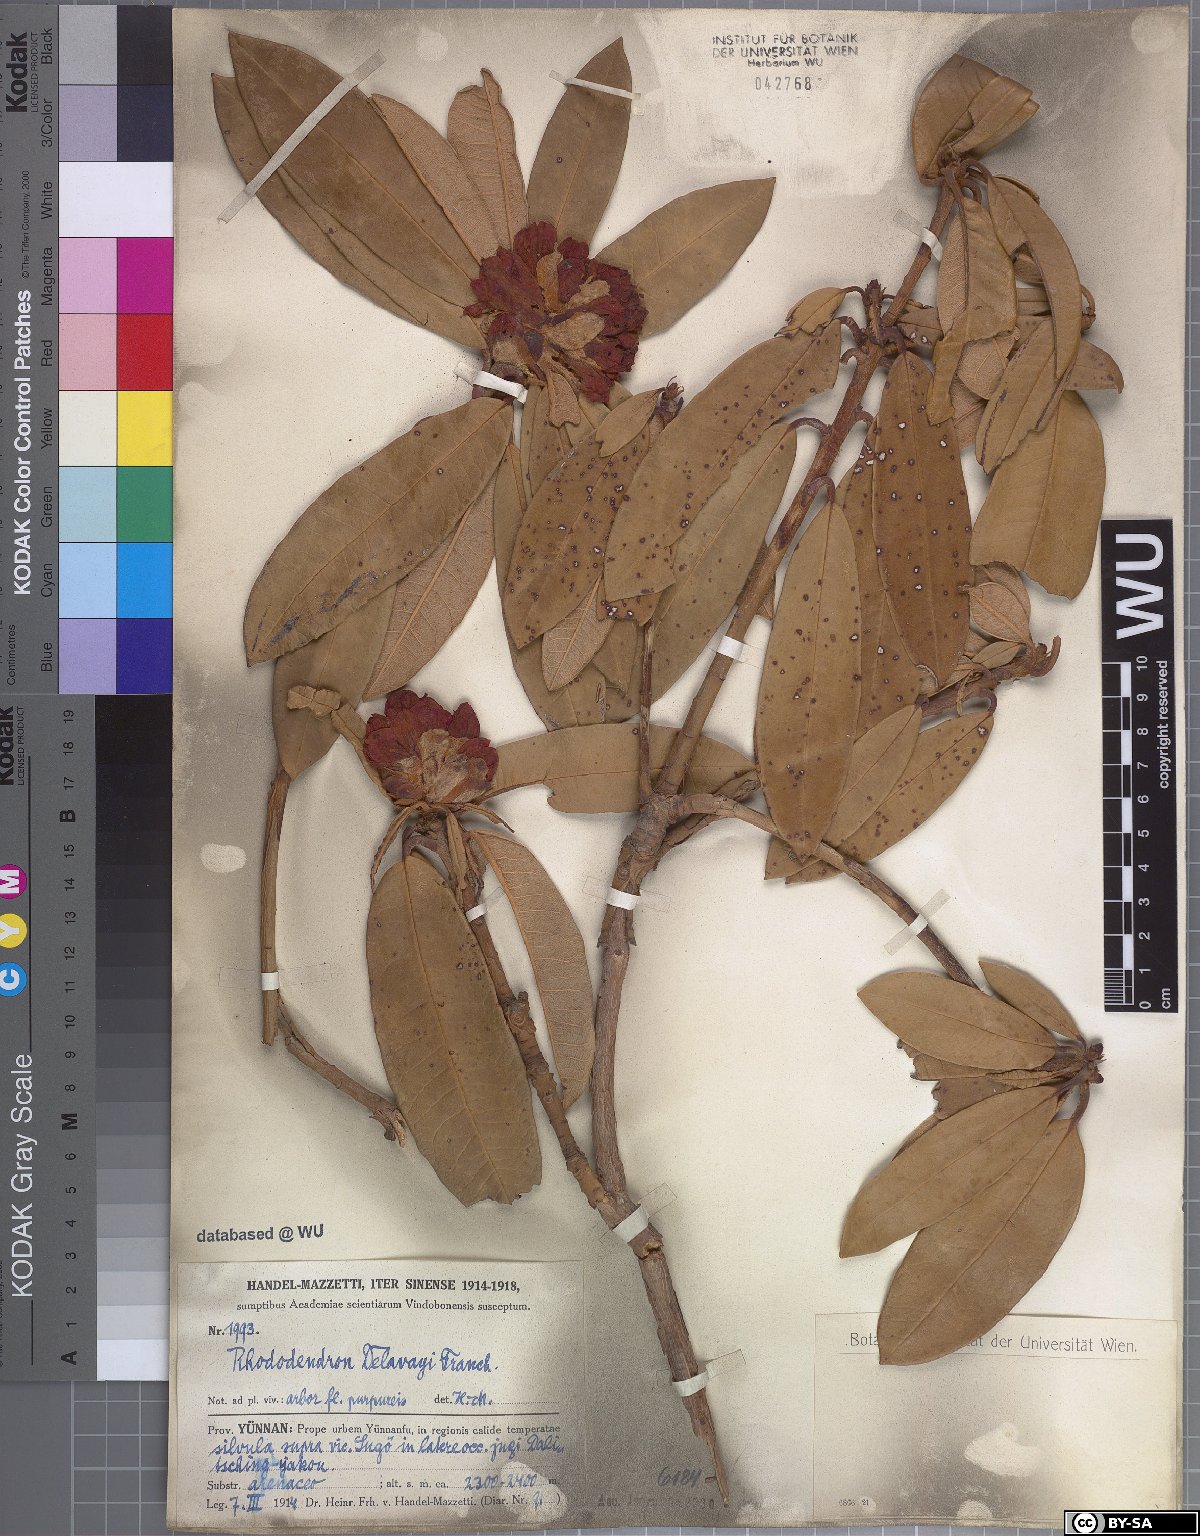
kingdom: Plantae
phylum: Tracheophyta
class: Magnoliopsida
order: Ericales
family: Ericaceae
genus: Rhododendron
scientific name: Rhododendron delavayi
